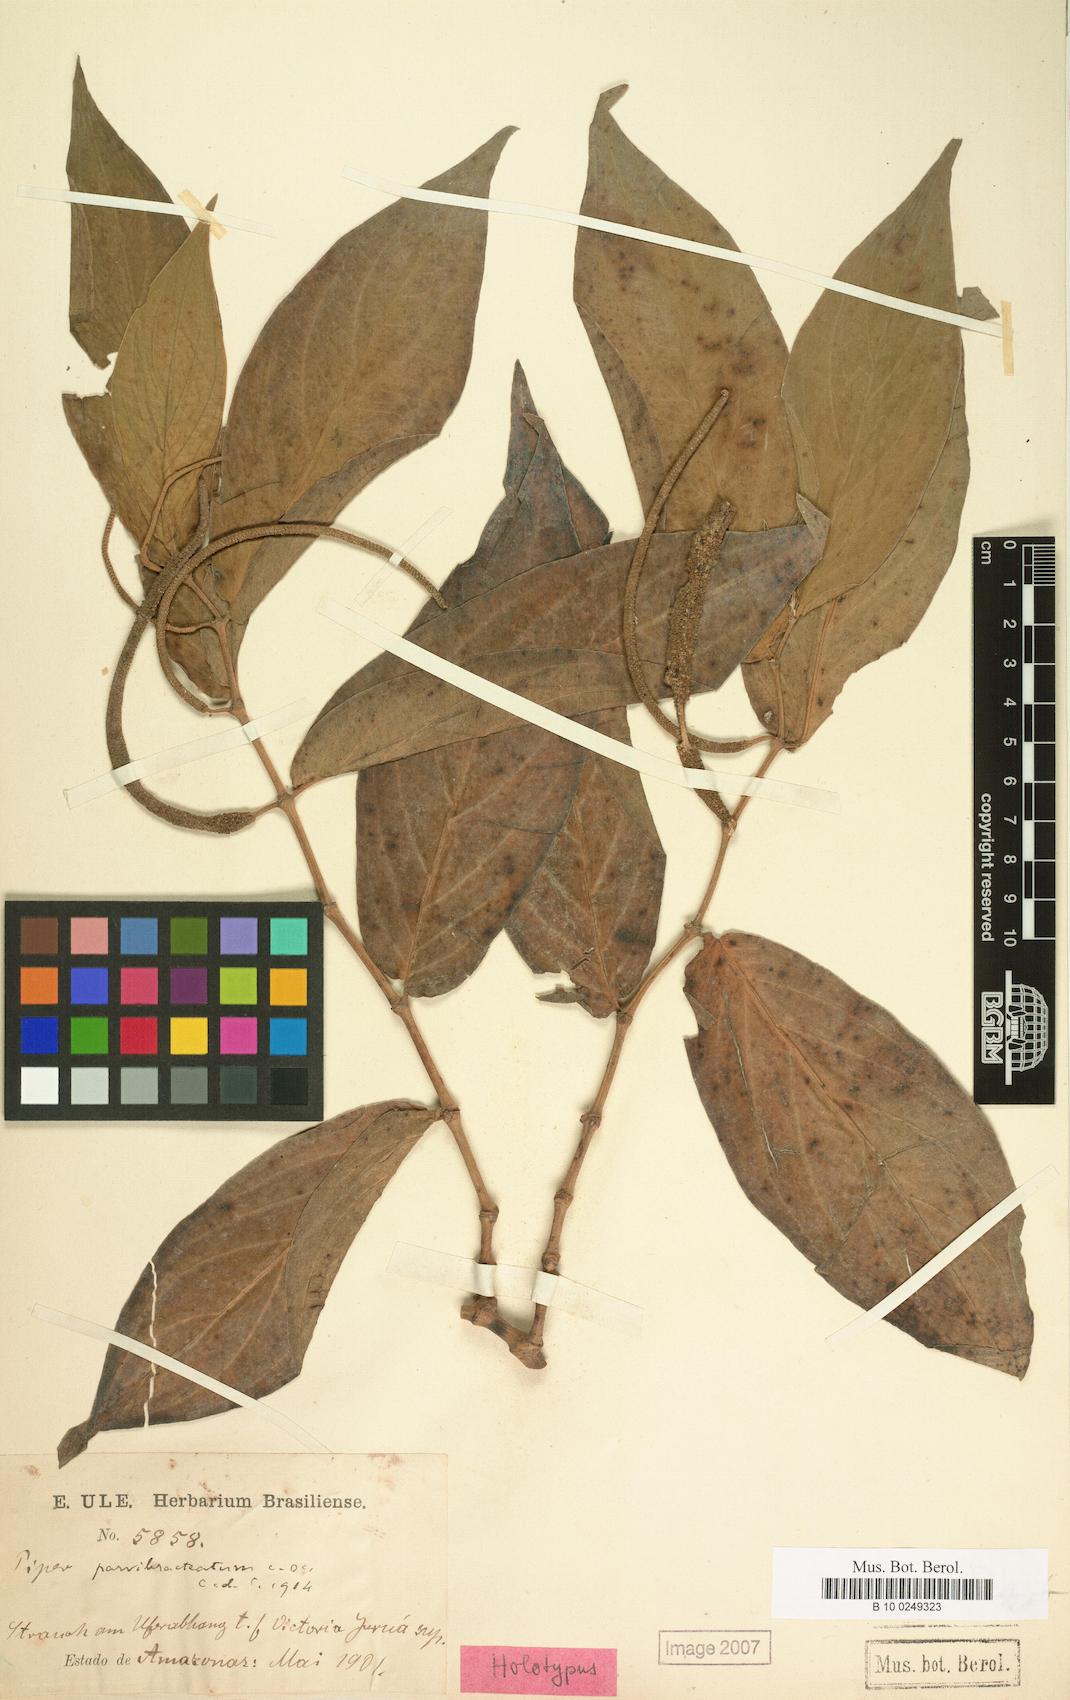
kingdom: Plantae
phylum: Tracheophyta
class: Magnoliopsida
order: Piperales
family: Piperaceae
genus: Piper
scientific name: Piper aduncum
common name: Spiked pepper
